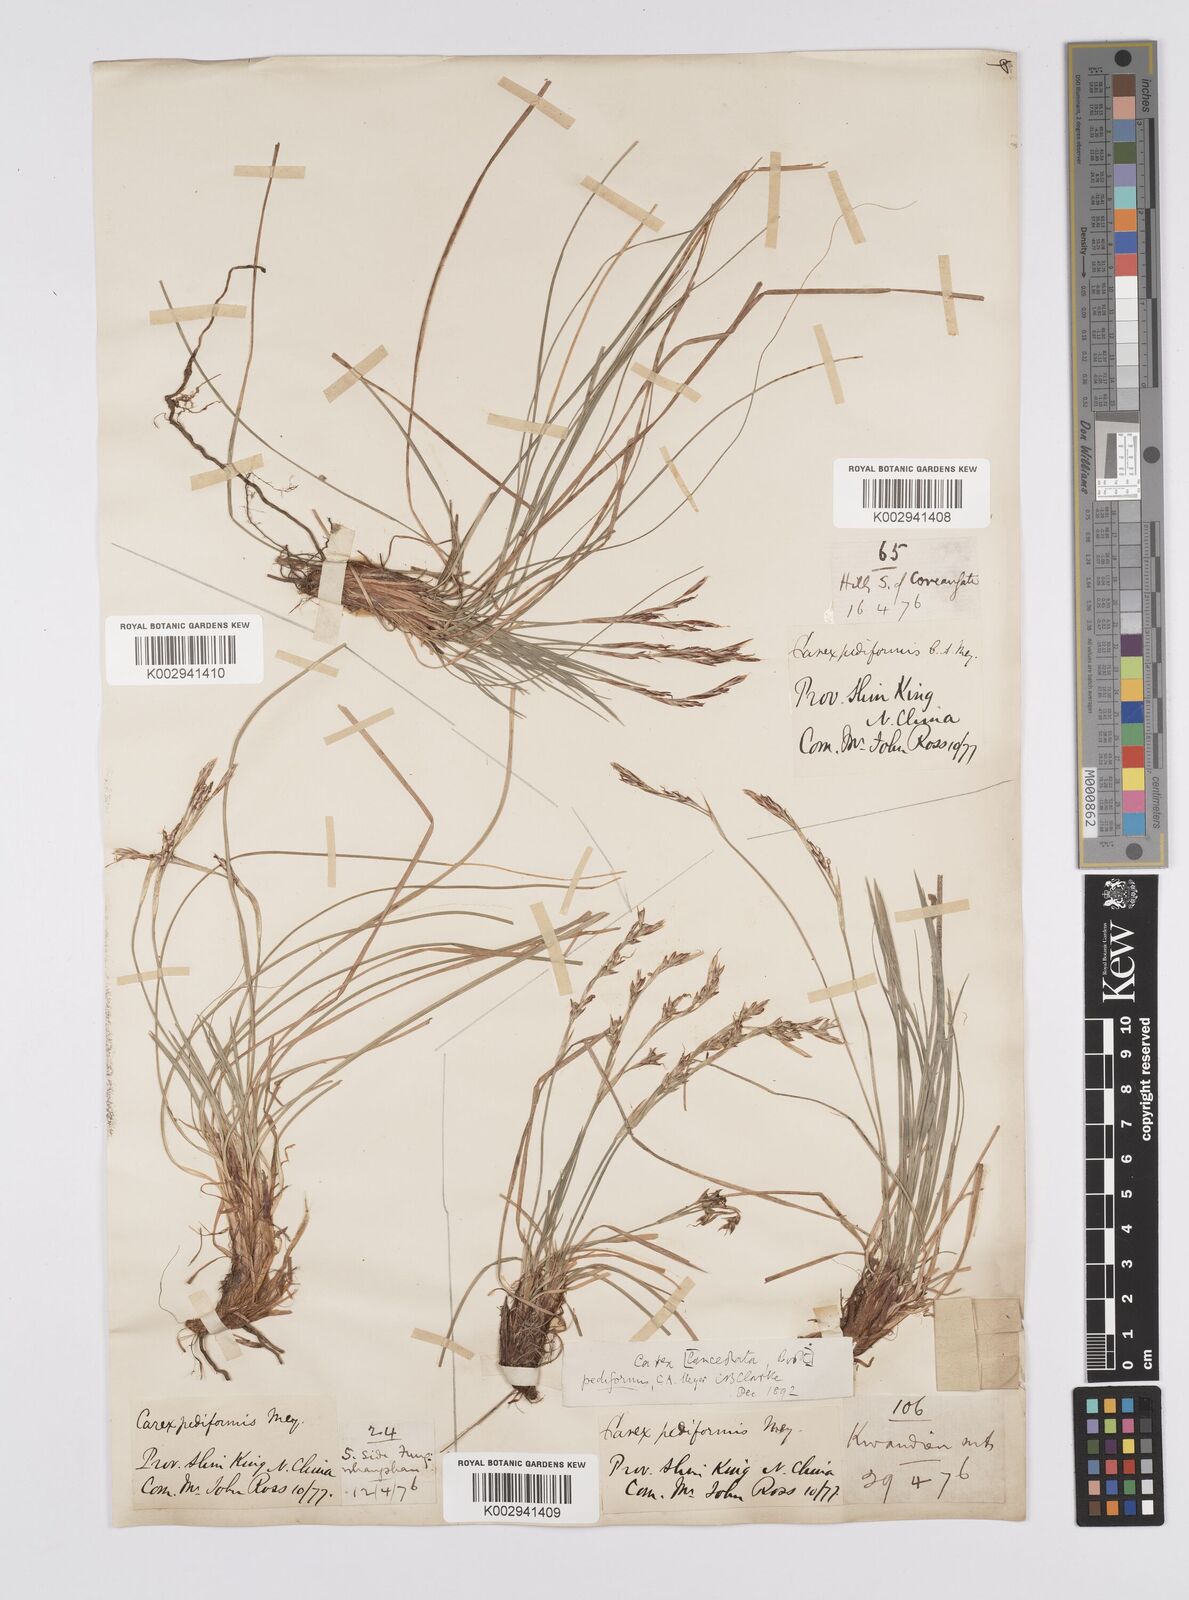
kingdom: Plantae
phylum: Tracheophyta
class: Liliopsida
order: Poales
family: Cyperaceae
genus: Carex
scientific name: Carex pediformis
